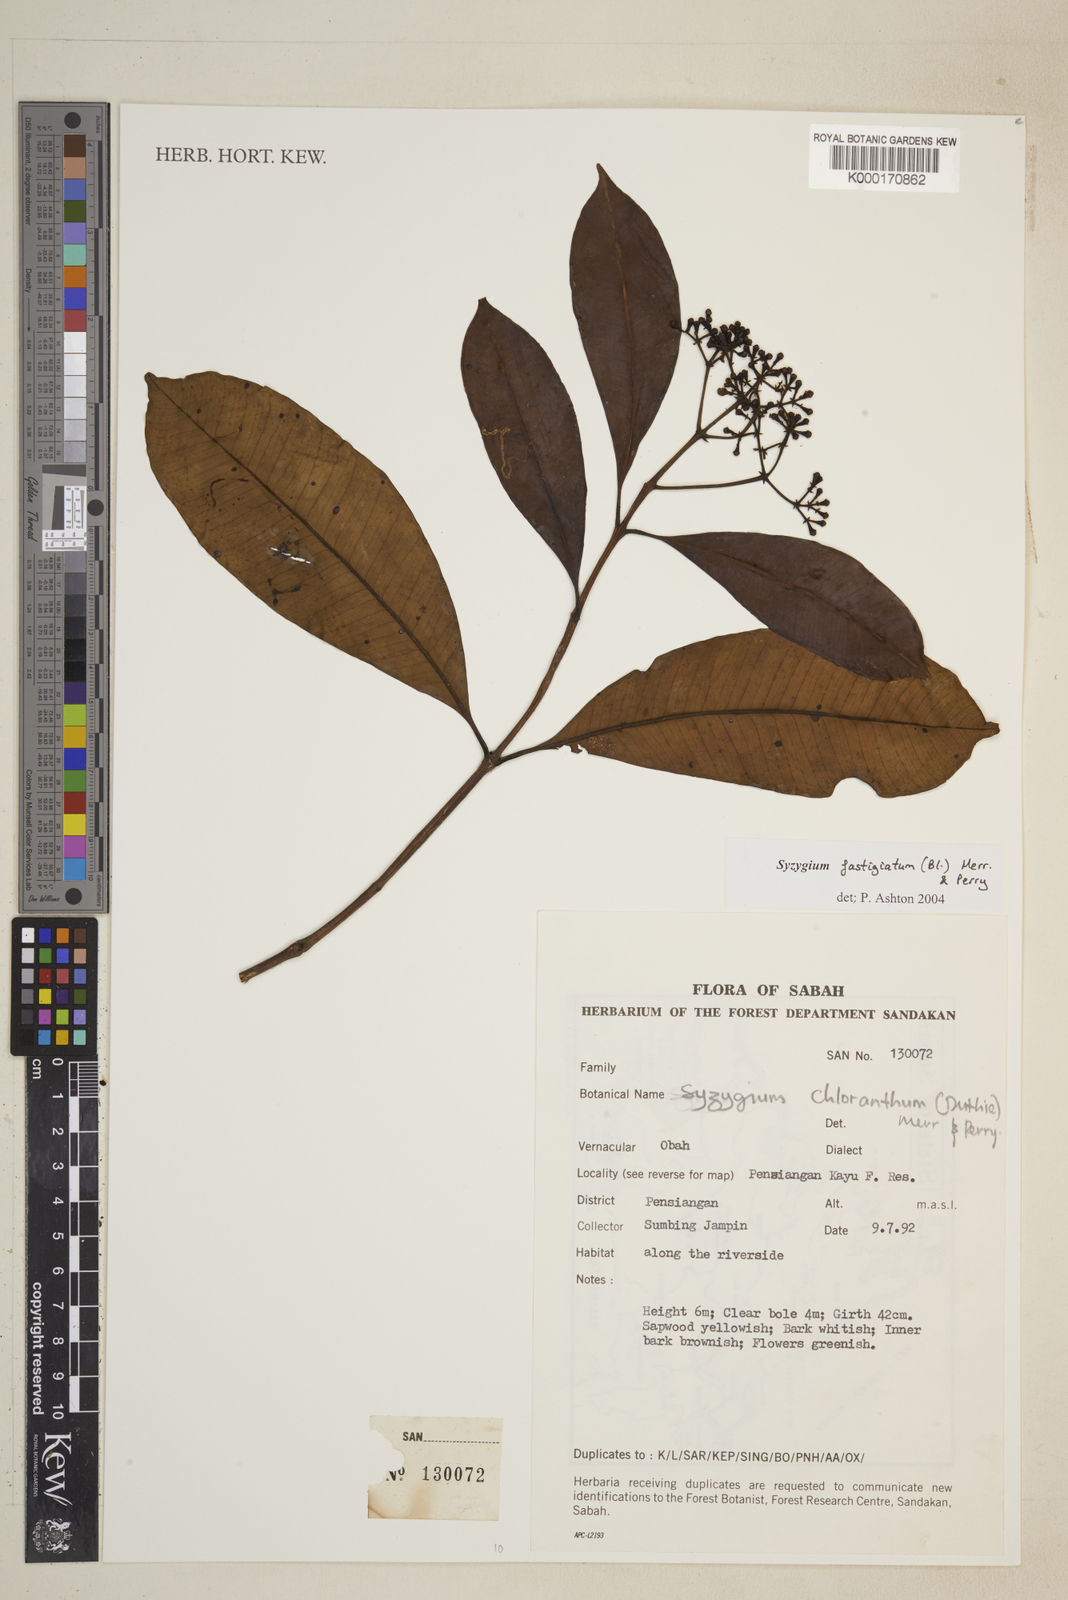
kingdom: Plantae
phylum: Tracheophyta
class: Magnoliopsida
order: Myrtales
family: Myrtaceae
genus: Syzygium
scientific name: Syzygium fastigiatum
